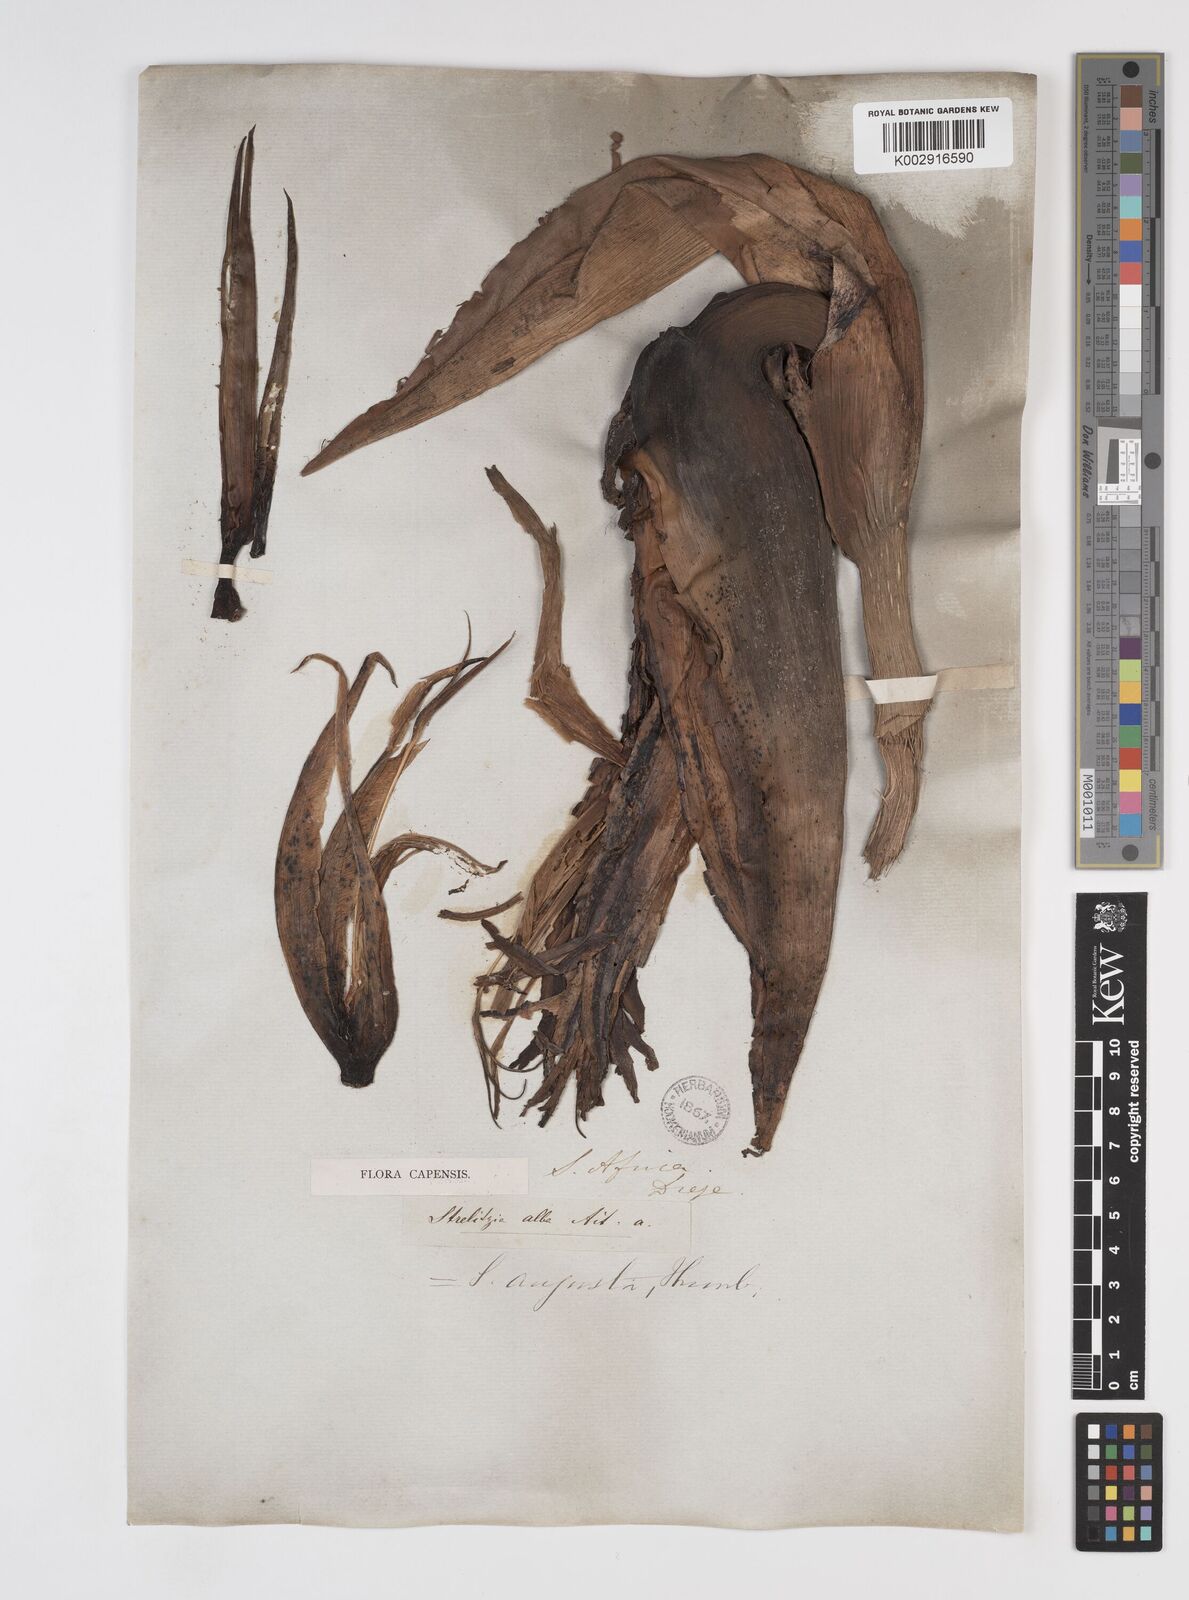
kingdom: Plantae
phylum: Tracheophyta
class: Liliopsida
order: Zingiberales
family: Strelitziaceae
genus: Strelitzia
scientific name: Strelitzia
